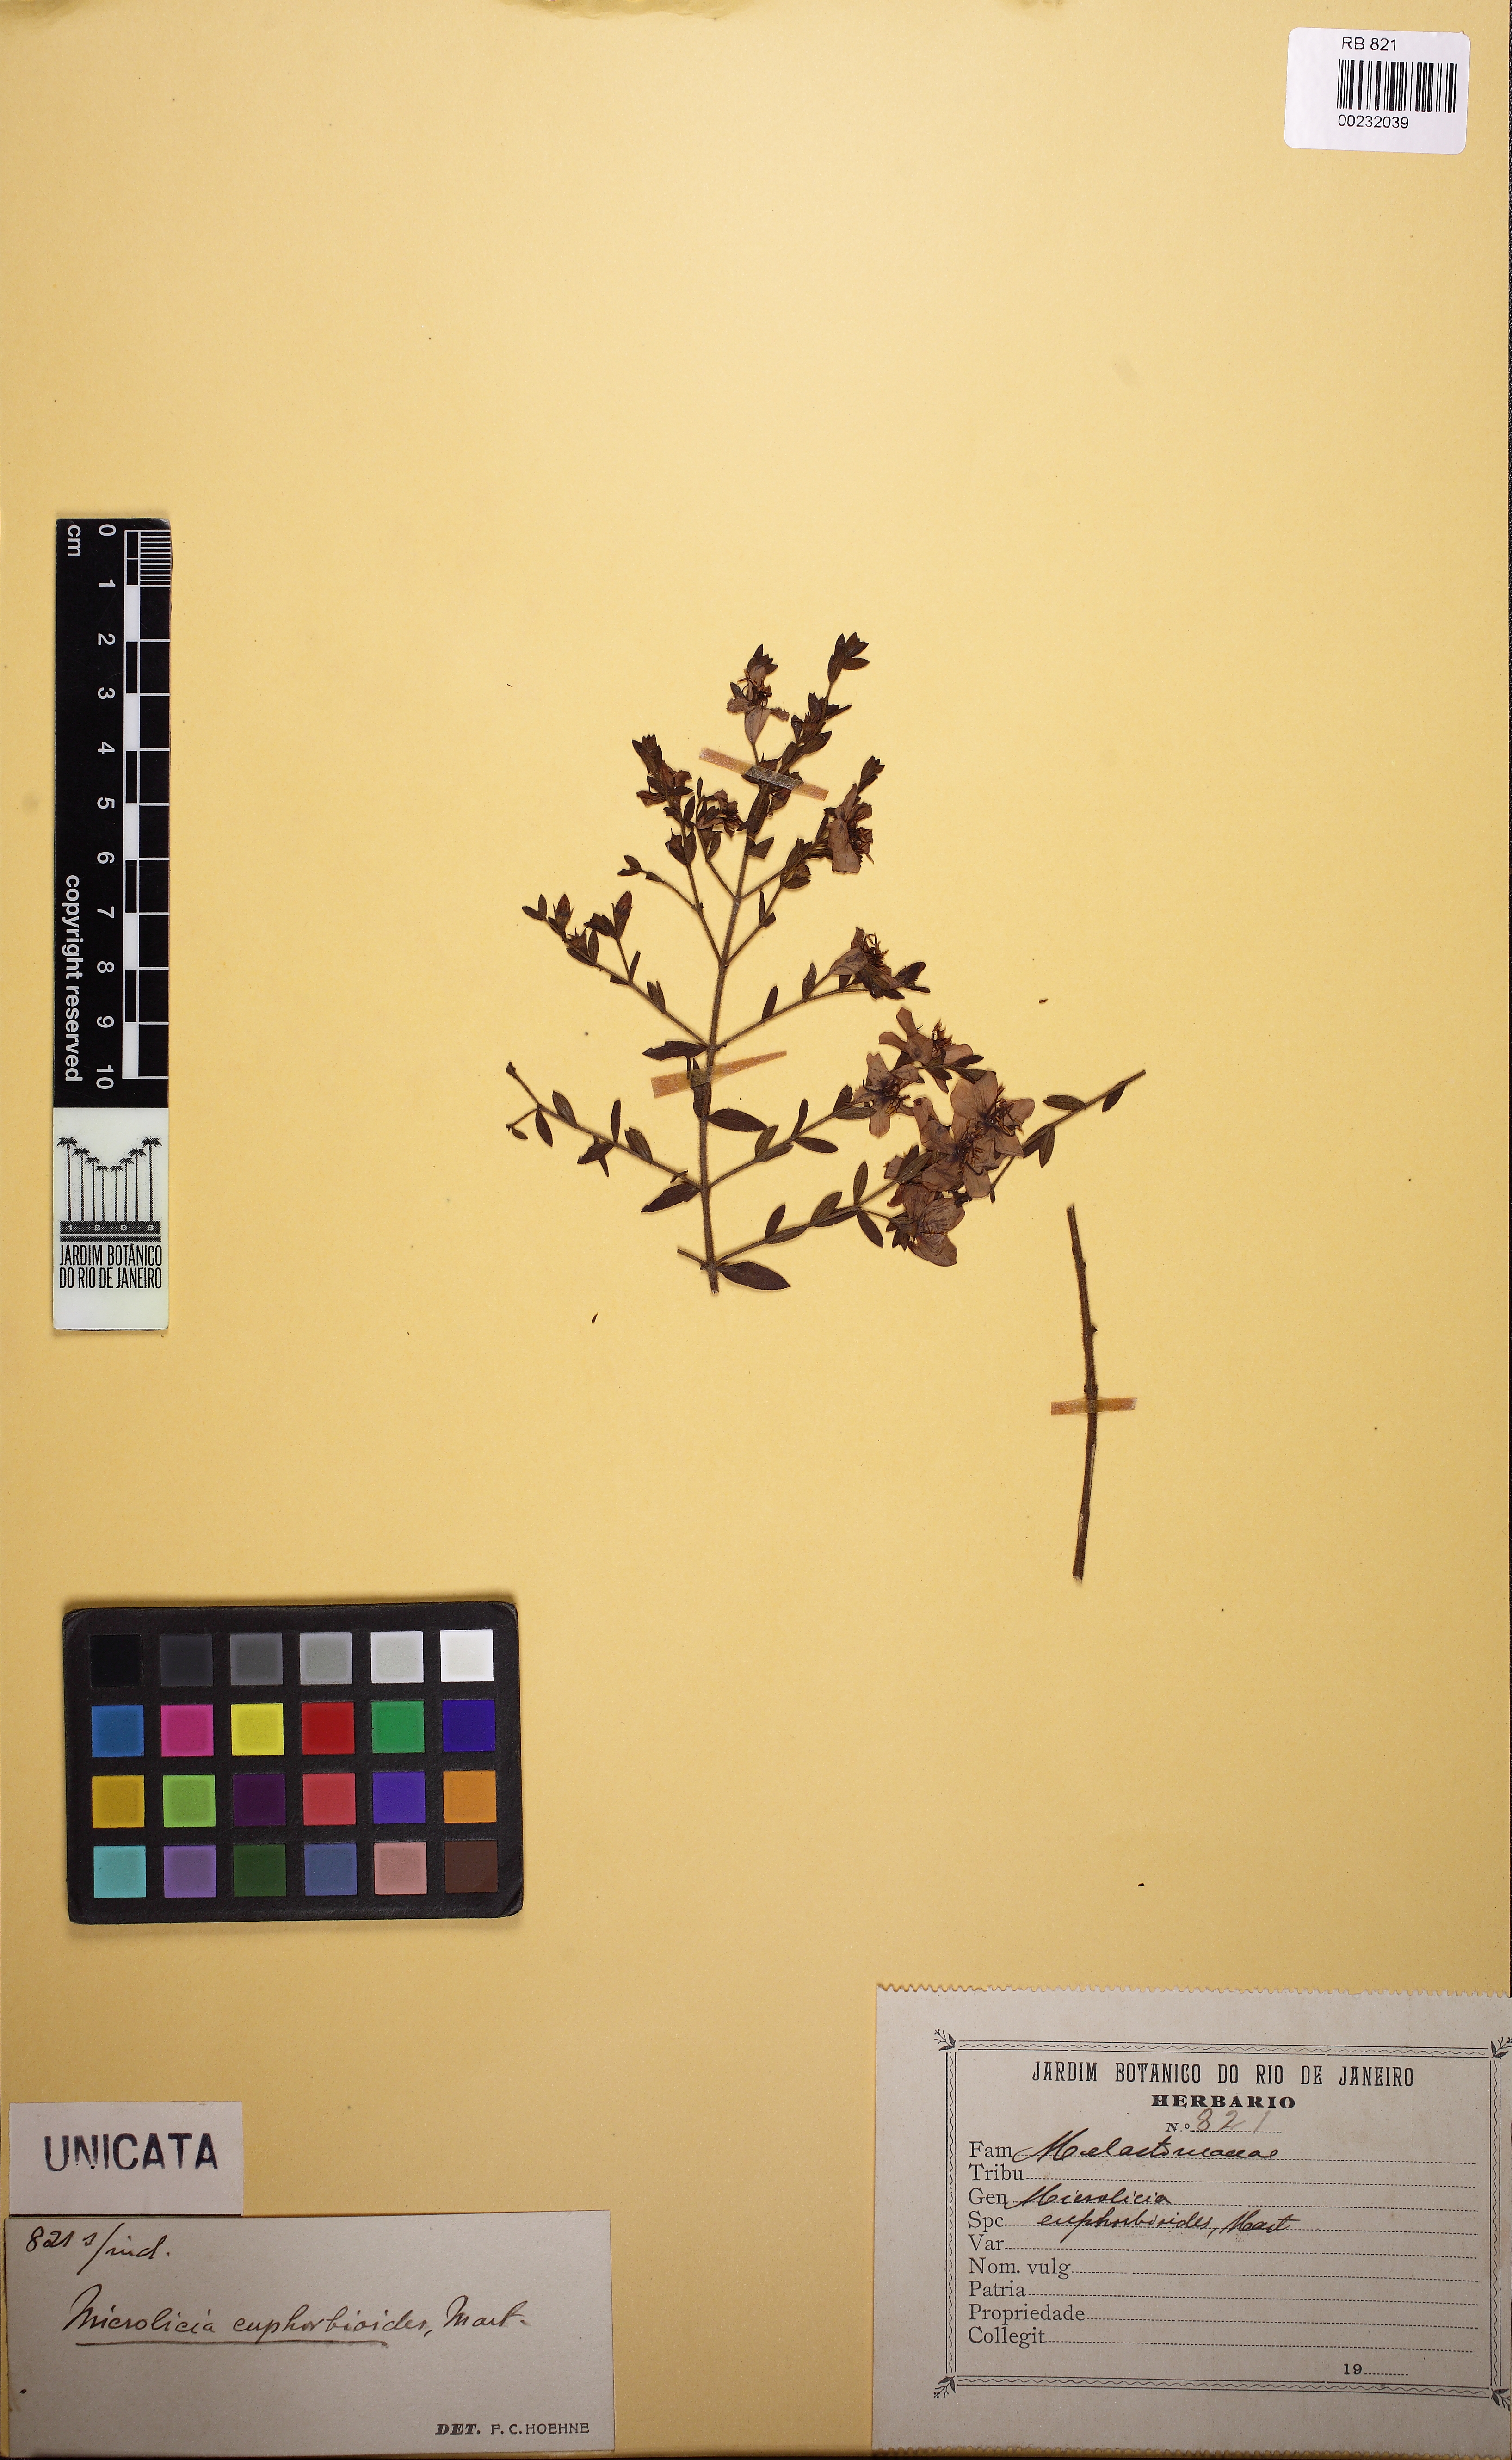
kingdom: Plantae
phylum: Tracheophyta
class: Magnoliopsida
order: Myrtales
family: Melastomataceae
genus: Microlicia
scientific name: Microlicia euphorbioides
